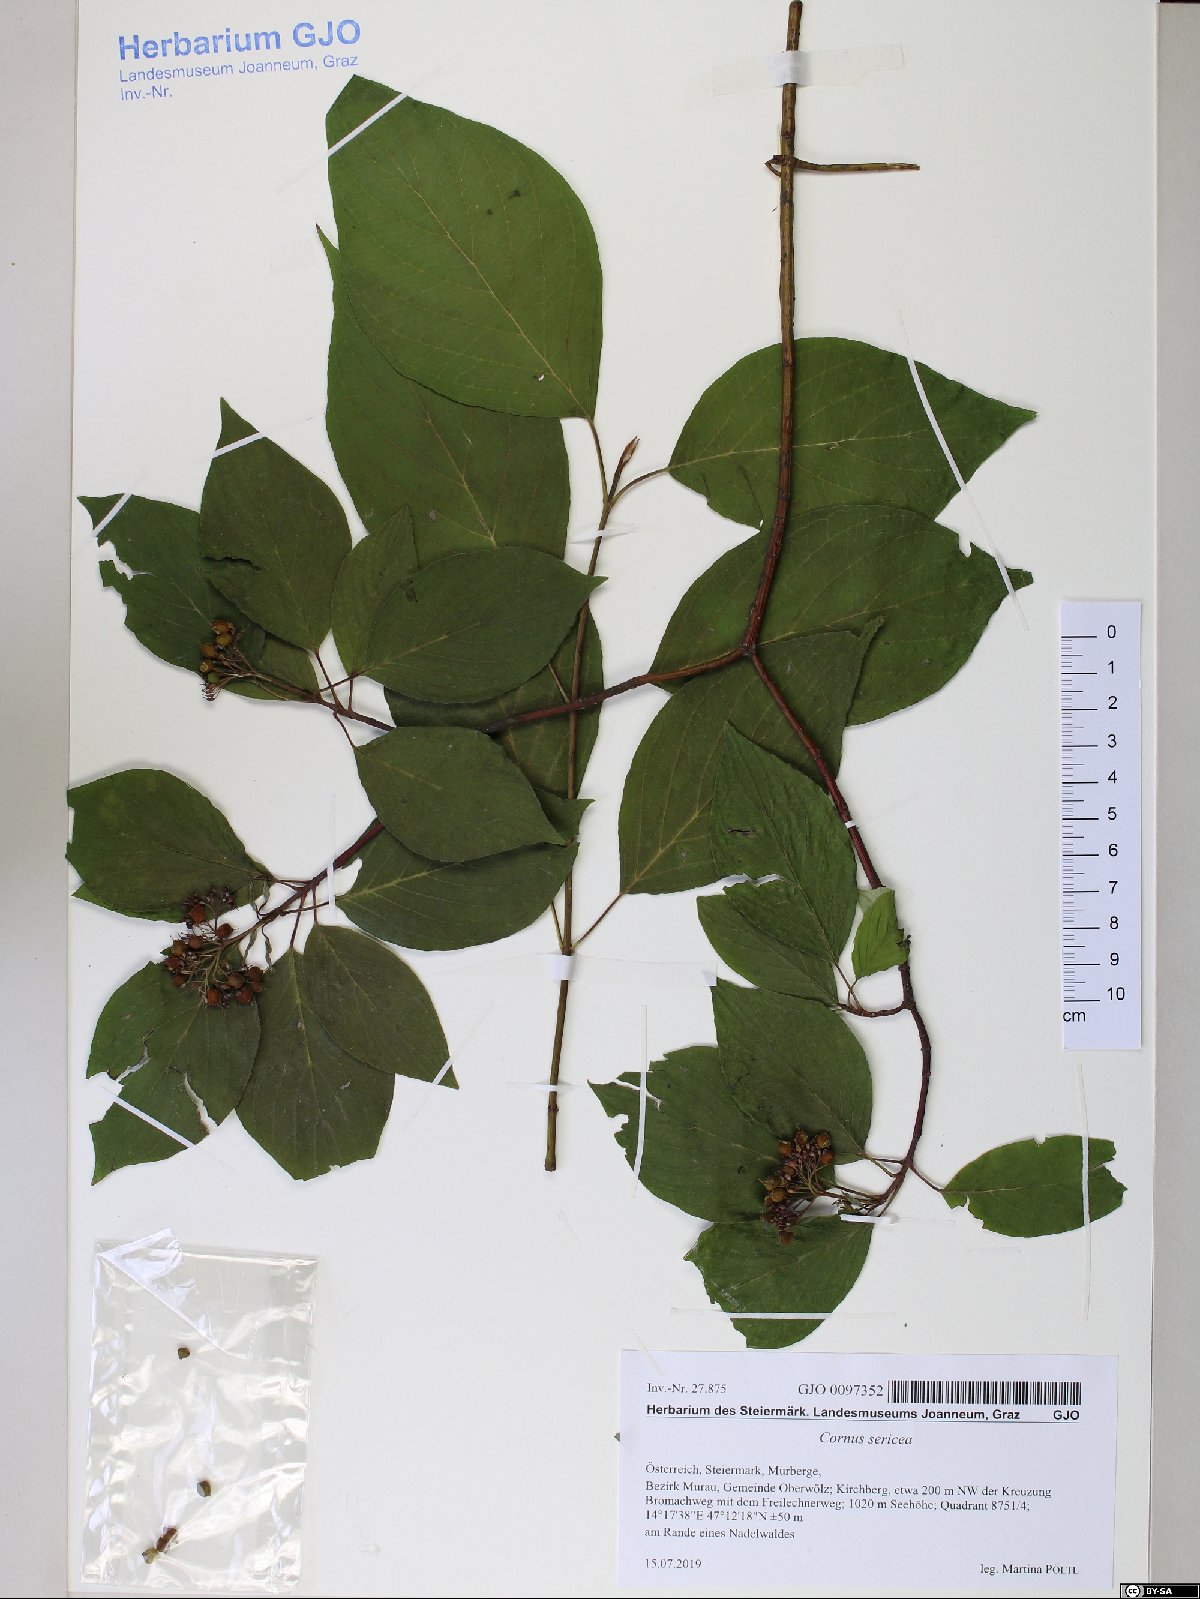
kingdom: Plantae
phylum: Tracheophyta
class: Magnoliopsida
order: Cornales
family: Cornaceae
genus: Cornus
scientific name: Cornus sericea
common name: Red-osier dogwood
